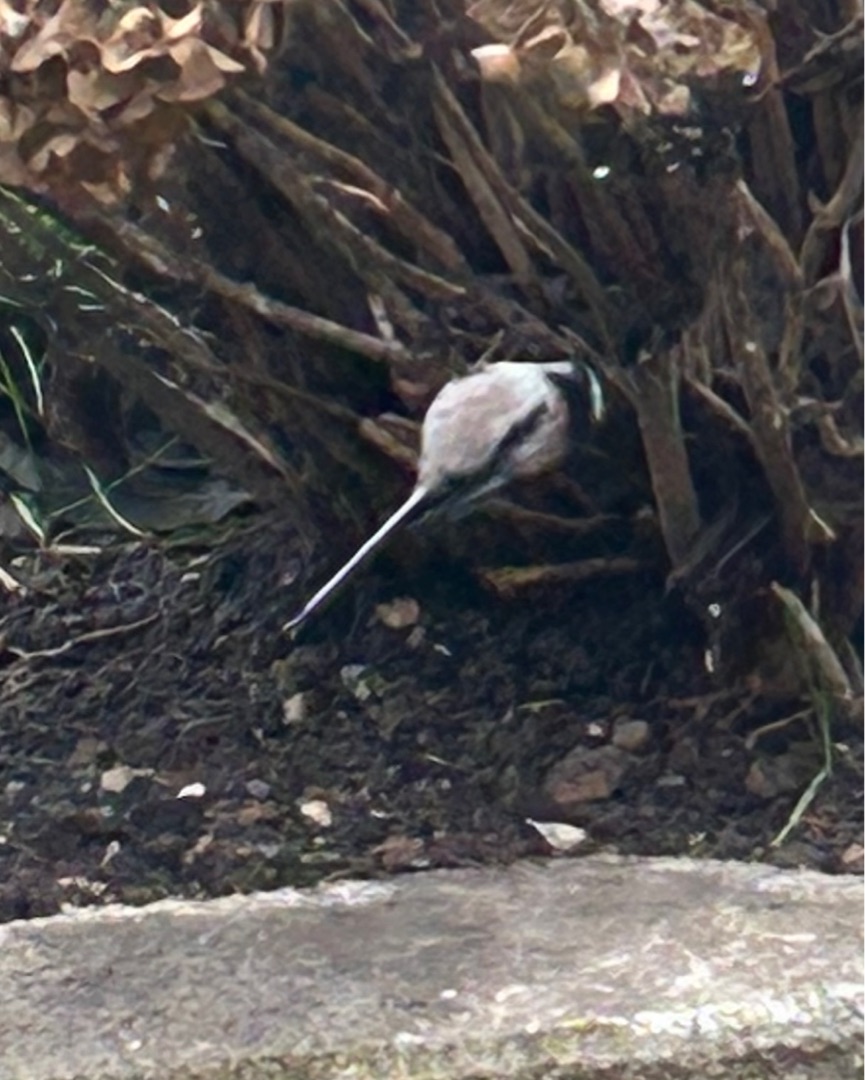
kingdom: Animalia
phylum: Chordata
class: Aves
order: Passeriformes
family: Aegithalidae
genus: Aegithalos
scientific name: Aegithalos caudatus
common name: Halemejse
